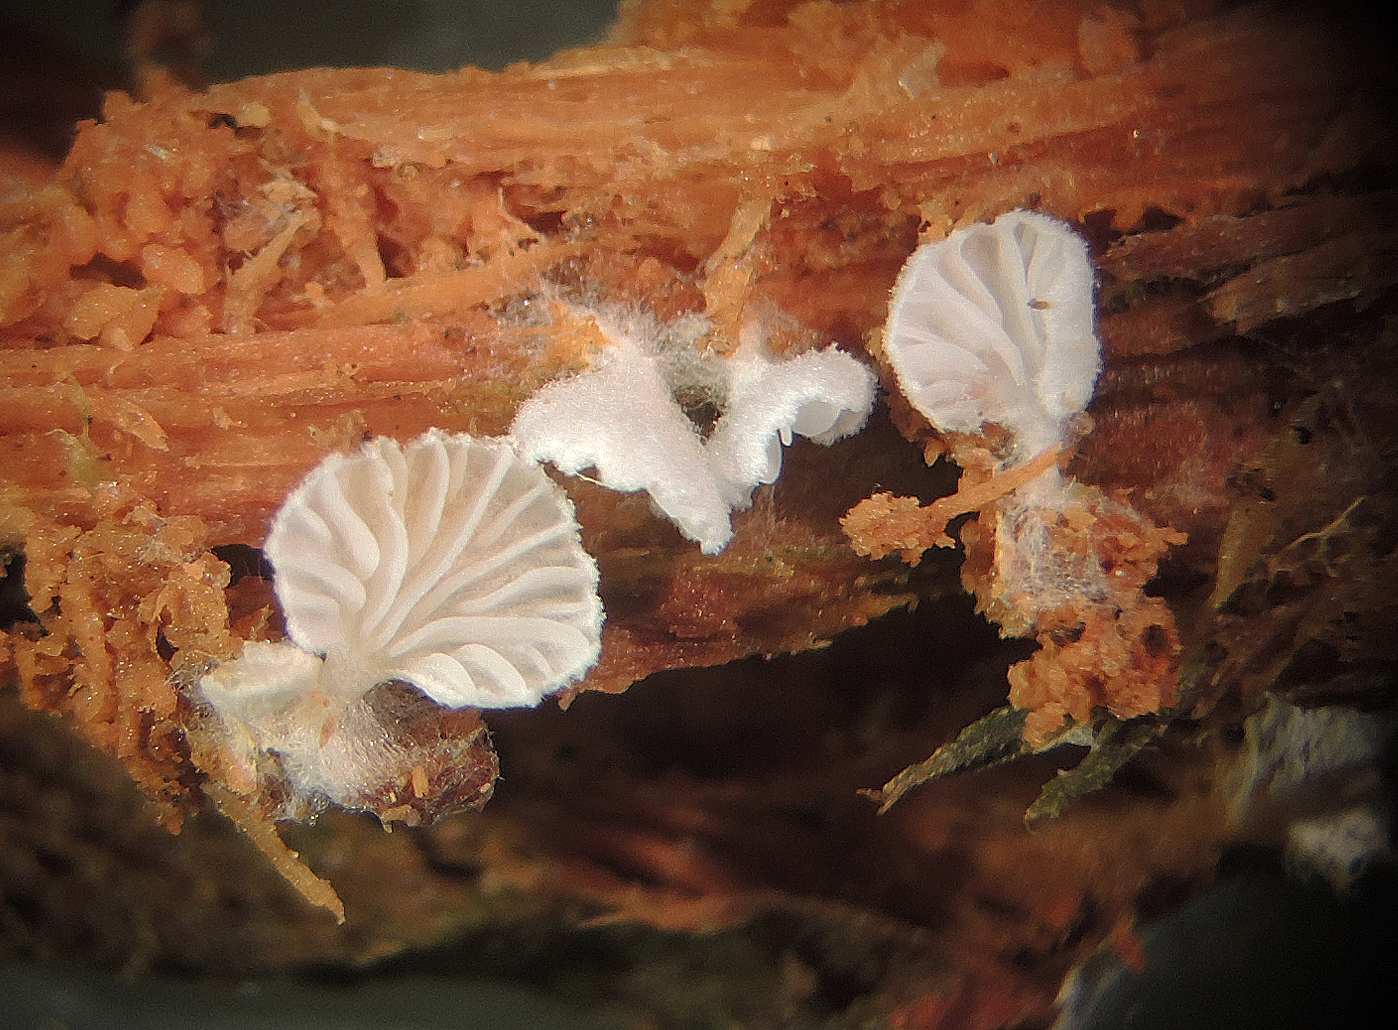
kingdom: Fungi
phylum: Basidiomycota
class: Agaricomycetes
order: Agaricales
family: Entolomataceae
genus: Clitopilus
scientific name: Clitopilus
